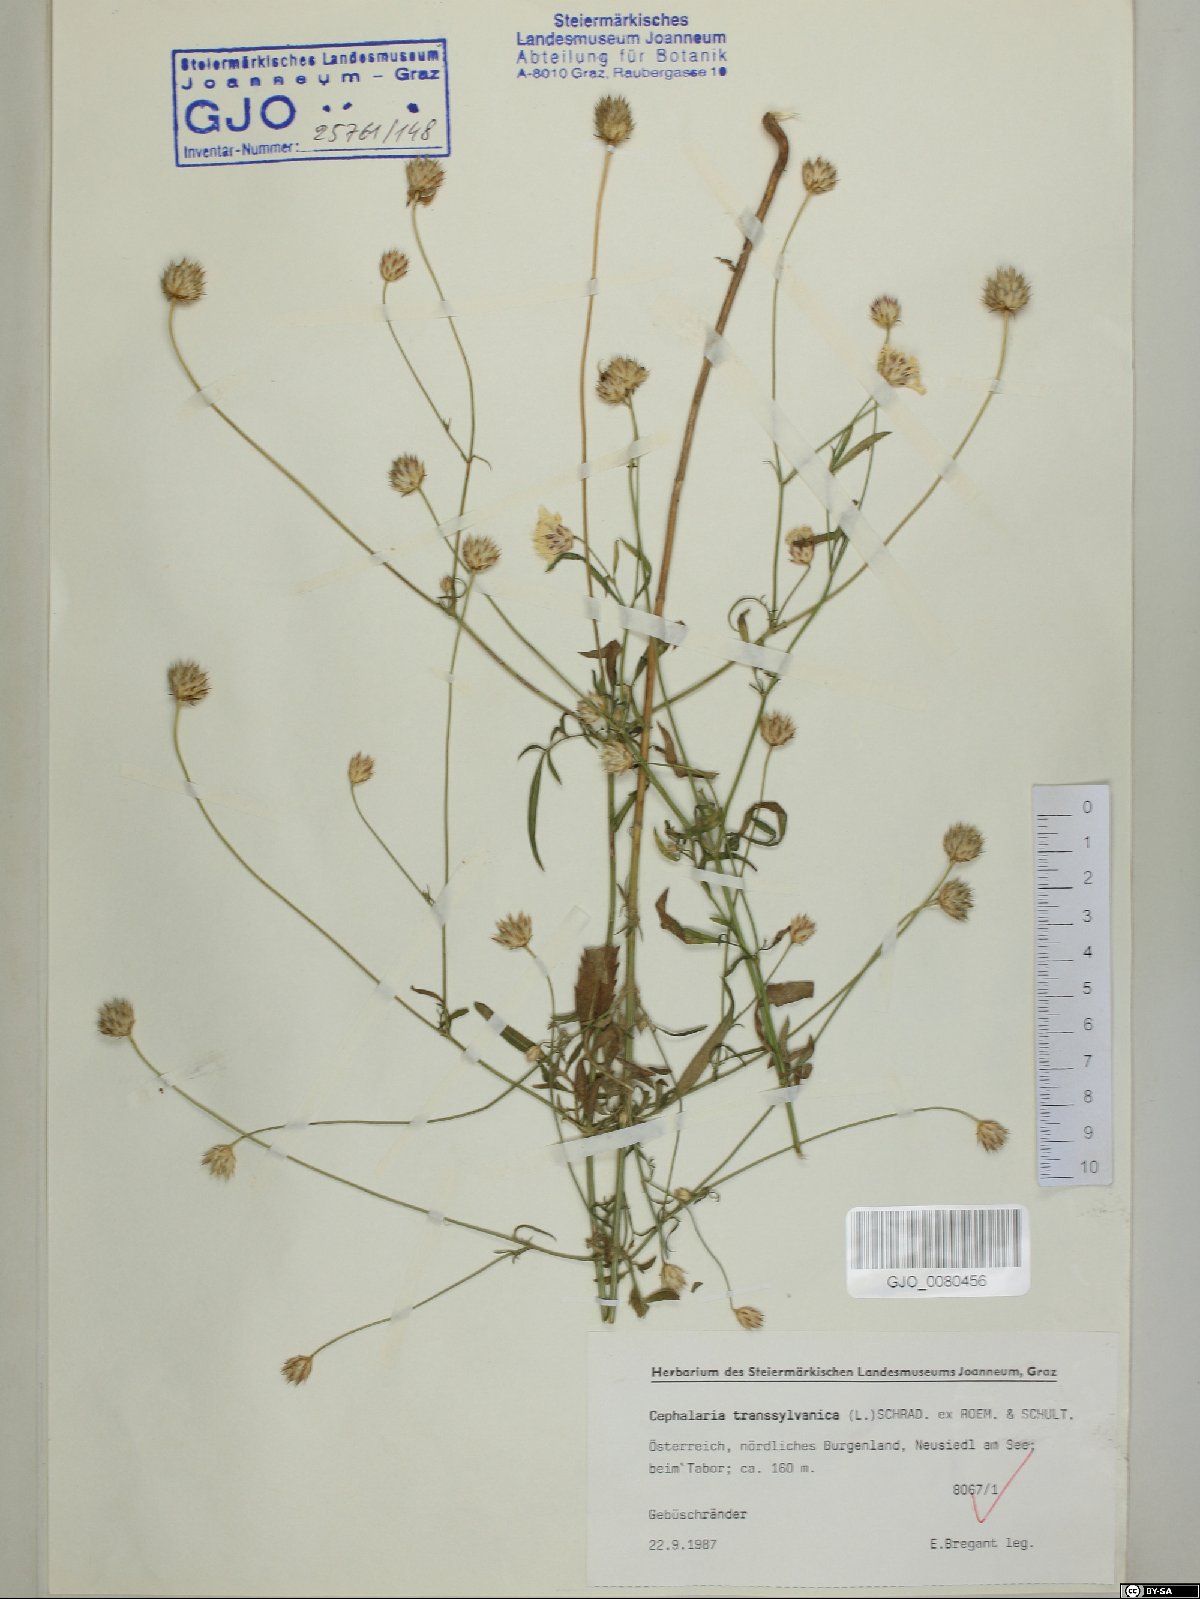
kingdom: Plantae
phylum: Tracheophyta
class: Magnoliopsida
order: Dipsacales
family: Caprifoliaceae
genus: Cephalaria
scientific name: Cephalaria transsylvanica
